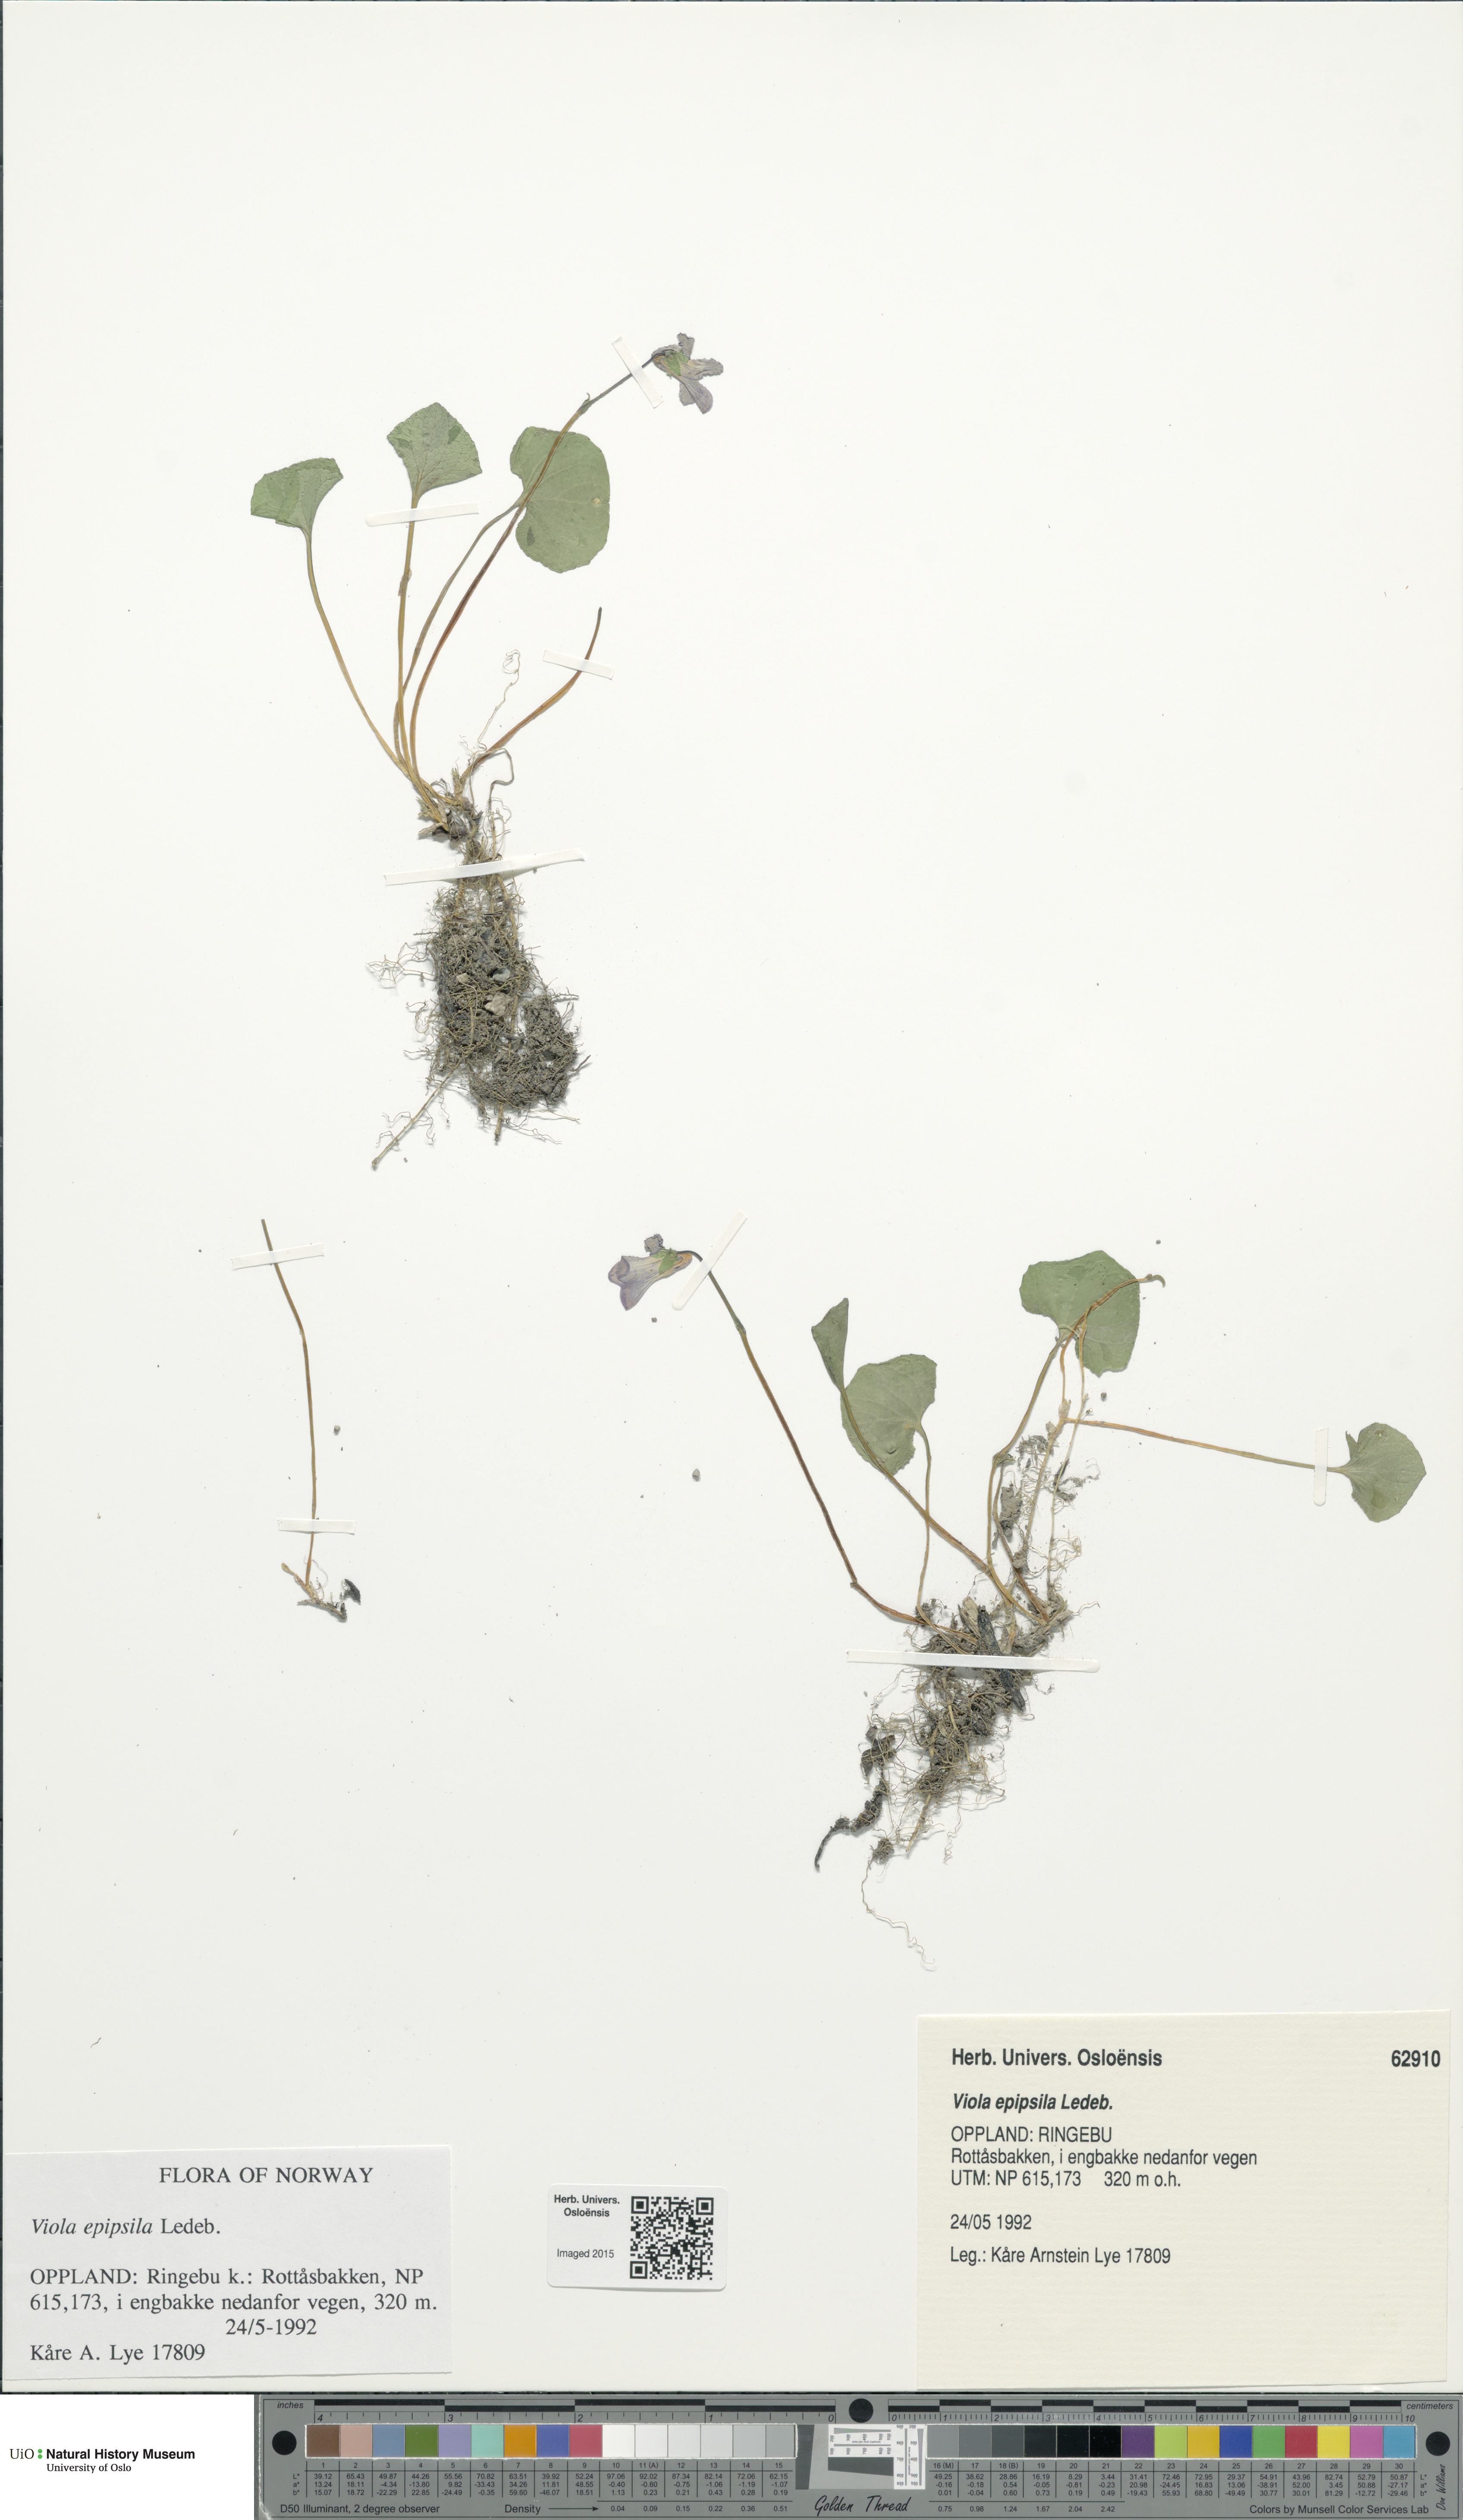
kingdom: Plantae
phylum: Tracheophyta
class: Magnoliopsida
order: Malpighiales
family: Violaceae
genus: Viola
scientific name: Viola epipsila
